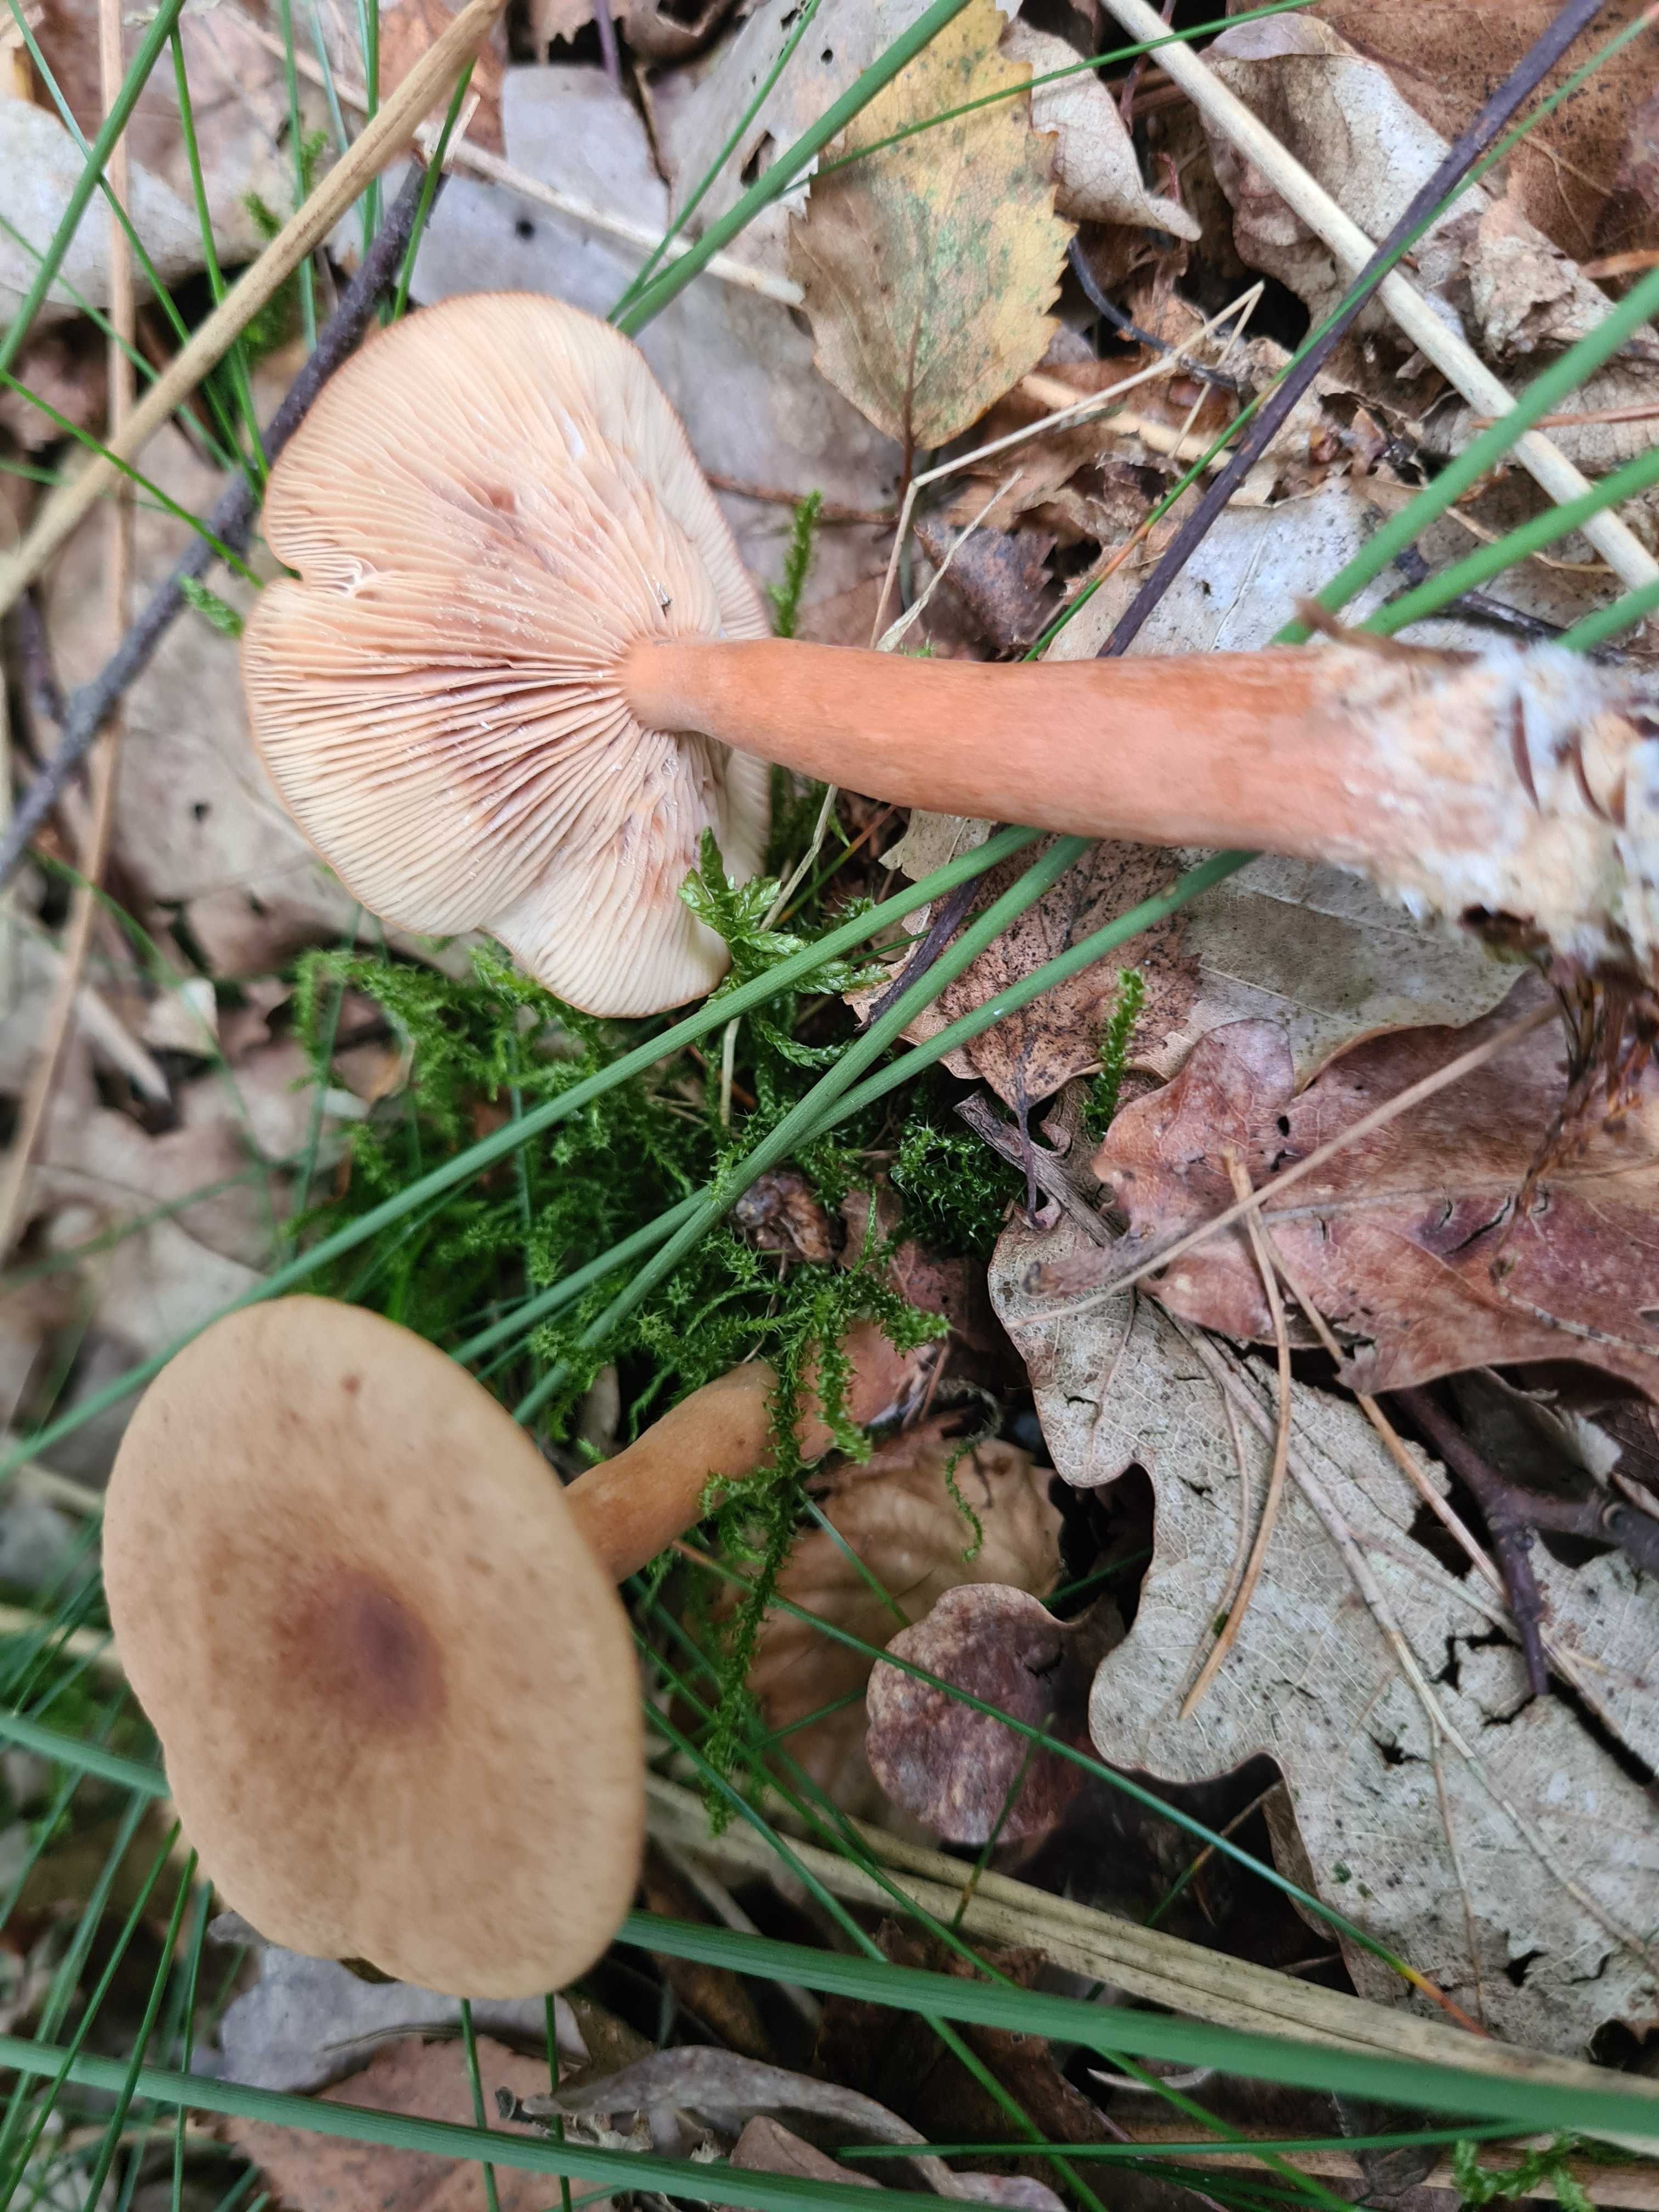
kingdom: Fungi
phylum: Basidiomycota
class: Agaricomycetes
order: Russulales
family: Russulaceae
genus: Lactarius
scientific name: Lactarius tabidus
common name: rynket mælkehat
